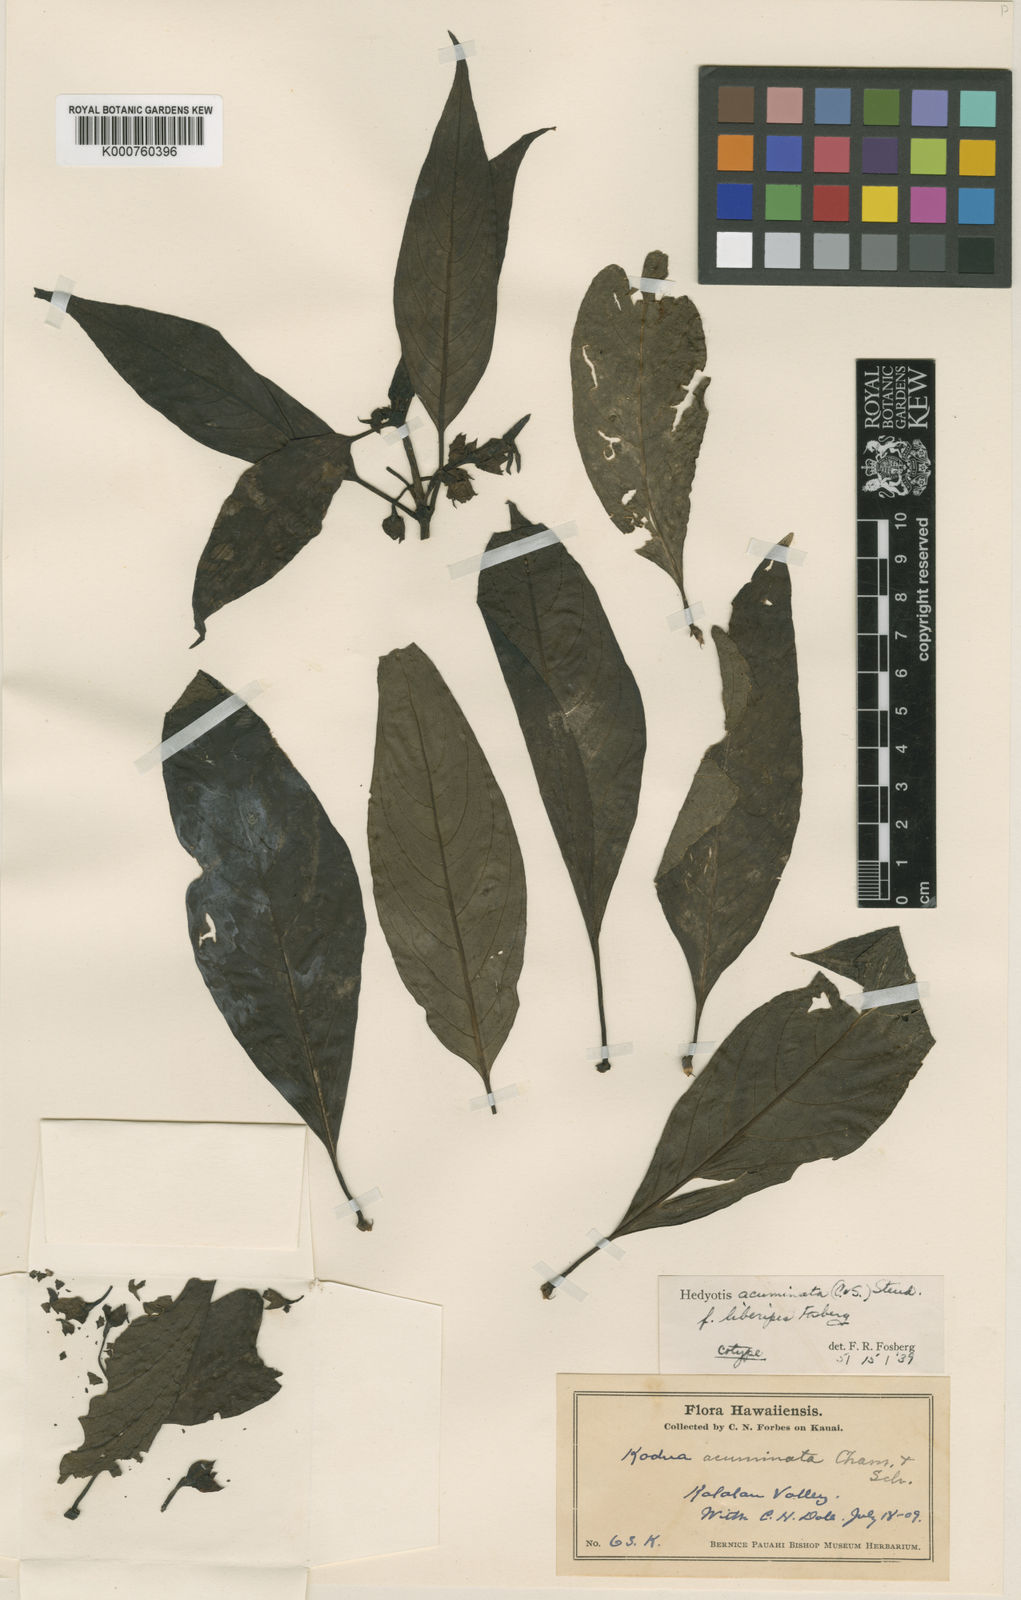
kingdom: Plantae
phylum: Tracheophyta
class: Magnoliopsida
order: Gentianales
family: Rubiaceae
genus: Kadua
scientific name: Kadua acuminata
